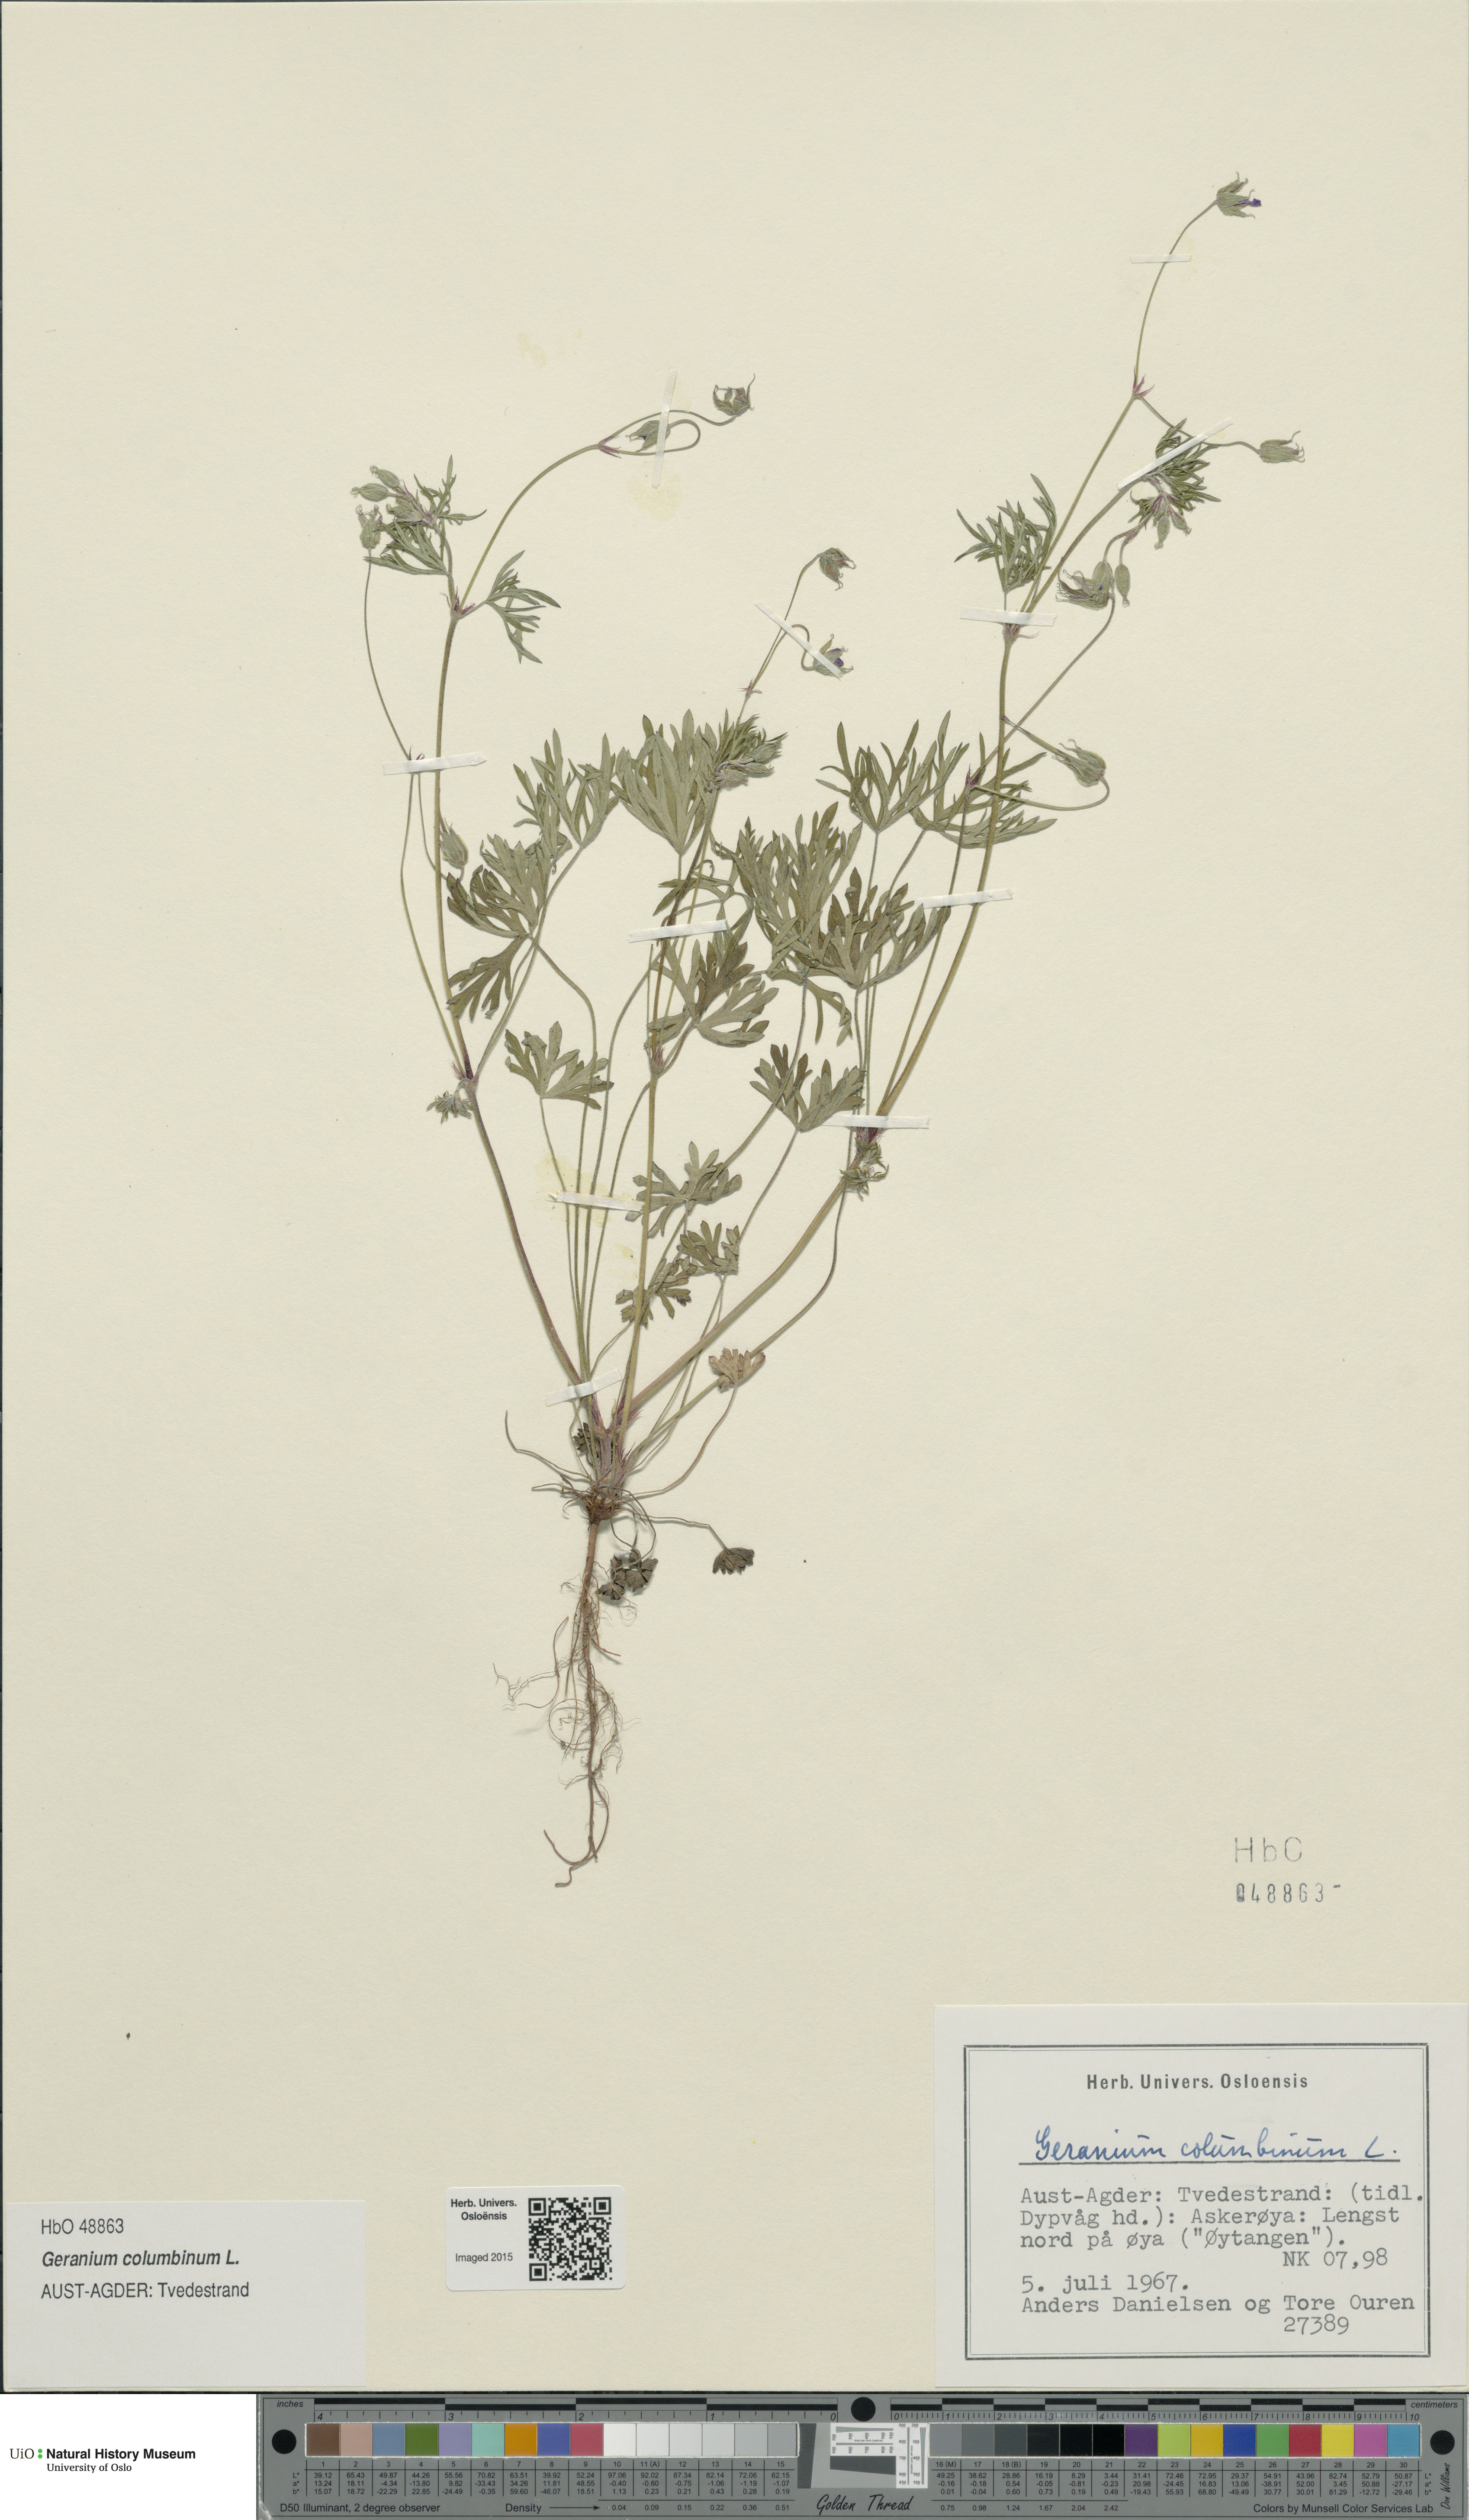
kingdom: Plantae
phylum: Tracheophyta
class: Magnoliopsida
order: Geraniales
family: Geraniaceae
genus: Geranium
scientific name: Geranium columbinum
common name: Long-stalked crane's-bill
